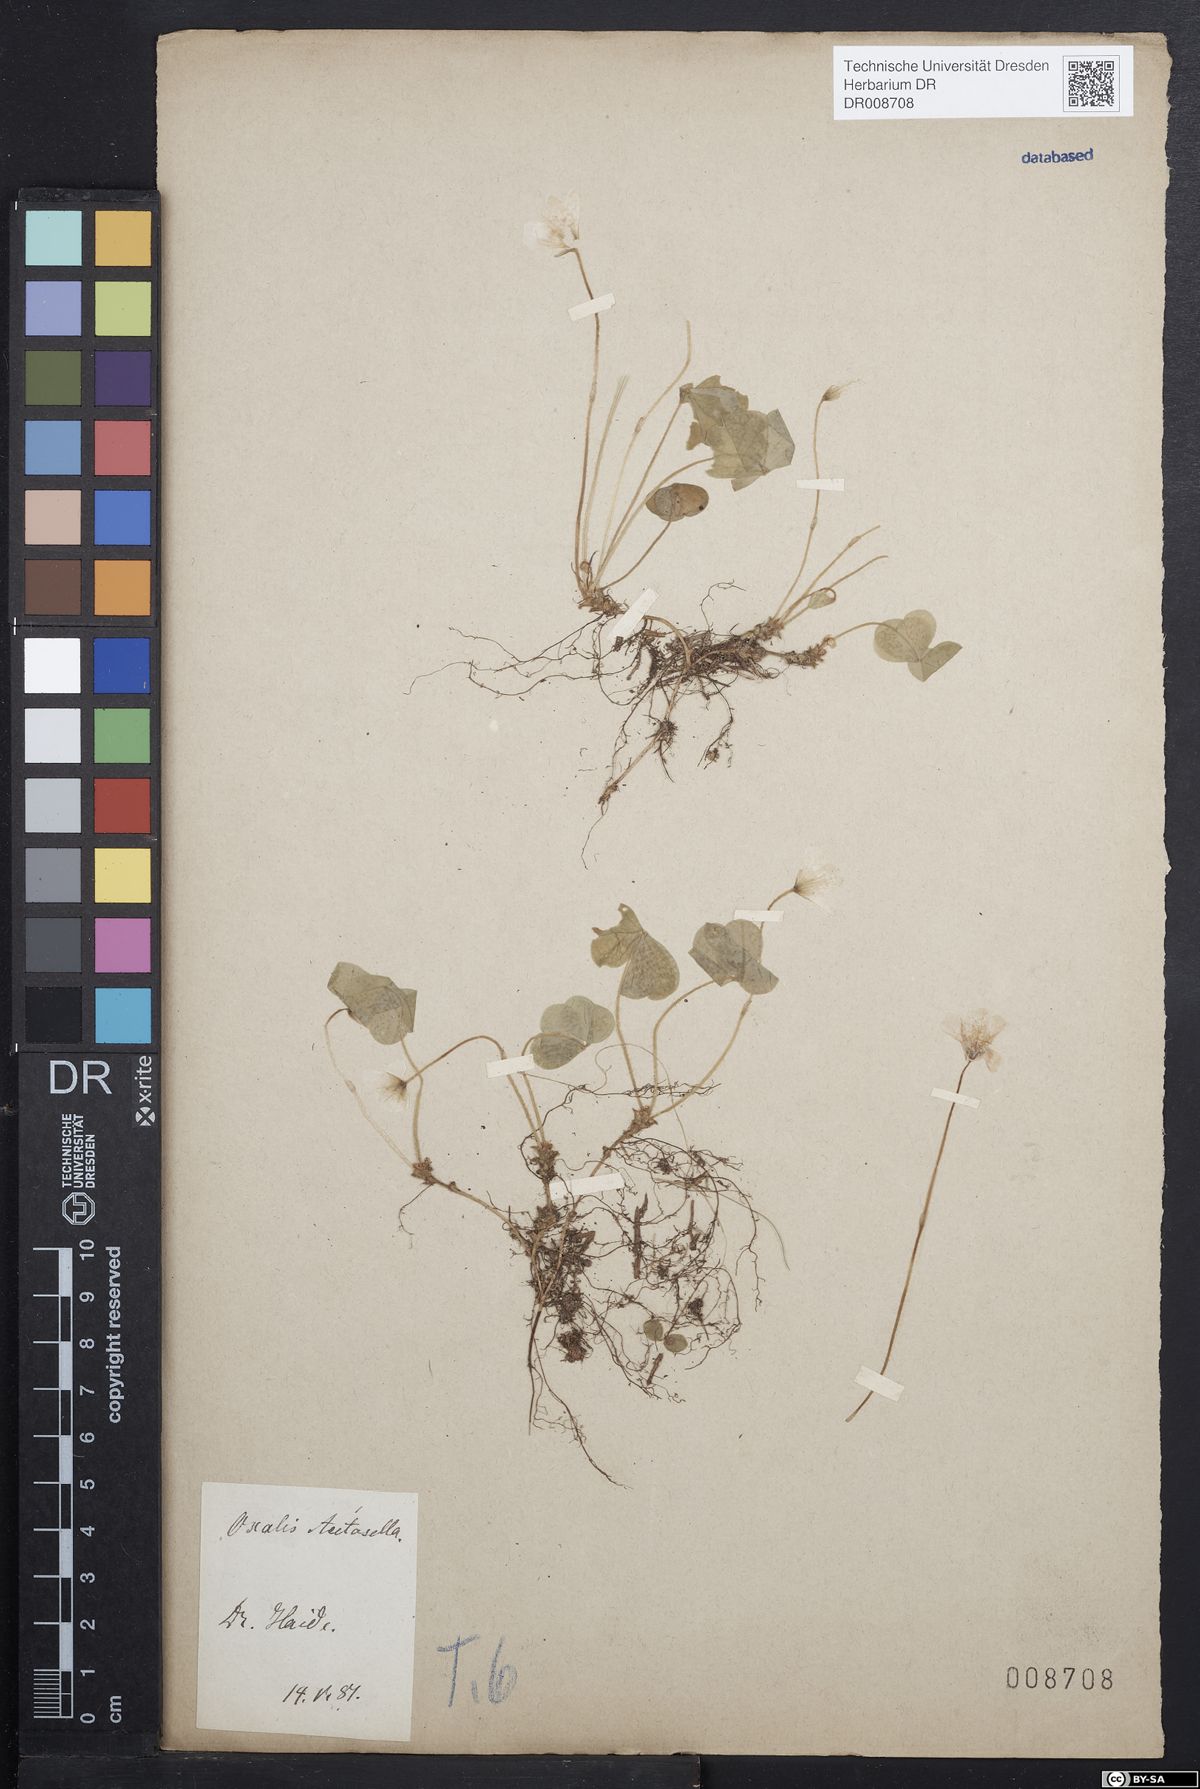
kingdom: Plantae
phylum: Tracheophyta
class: Magnoliopsida
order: Oxalidales
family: Oxalidaceae
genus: Oxalis
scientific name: Oxalis acetosella
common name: Wood-sorrel
